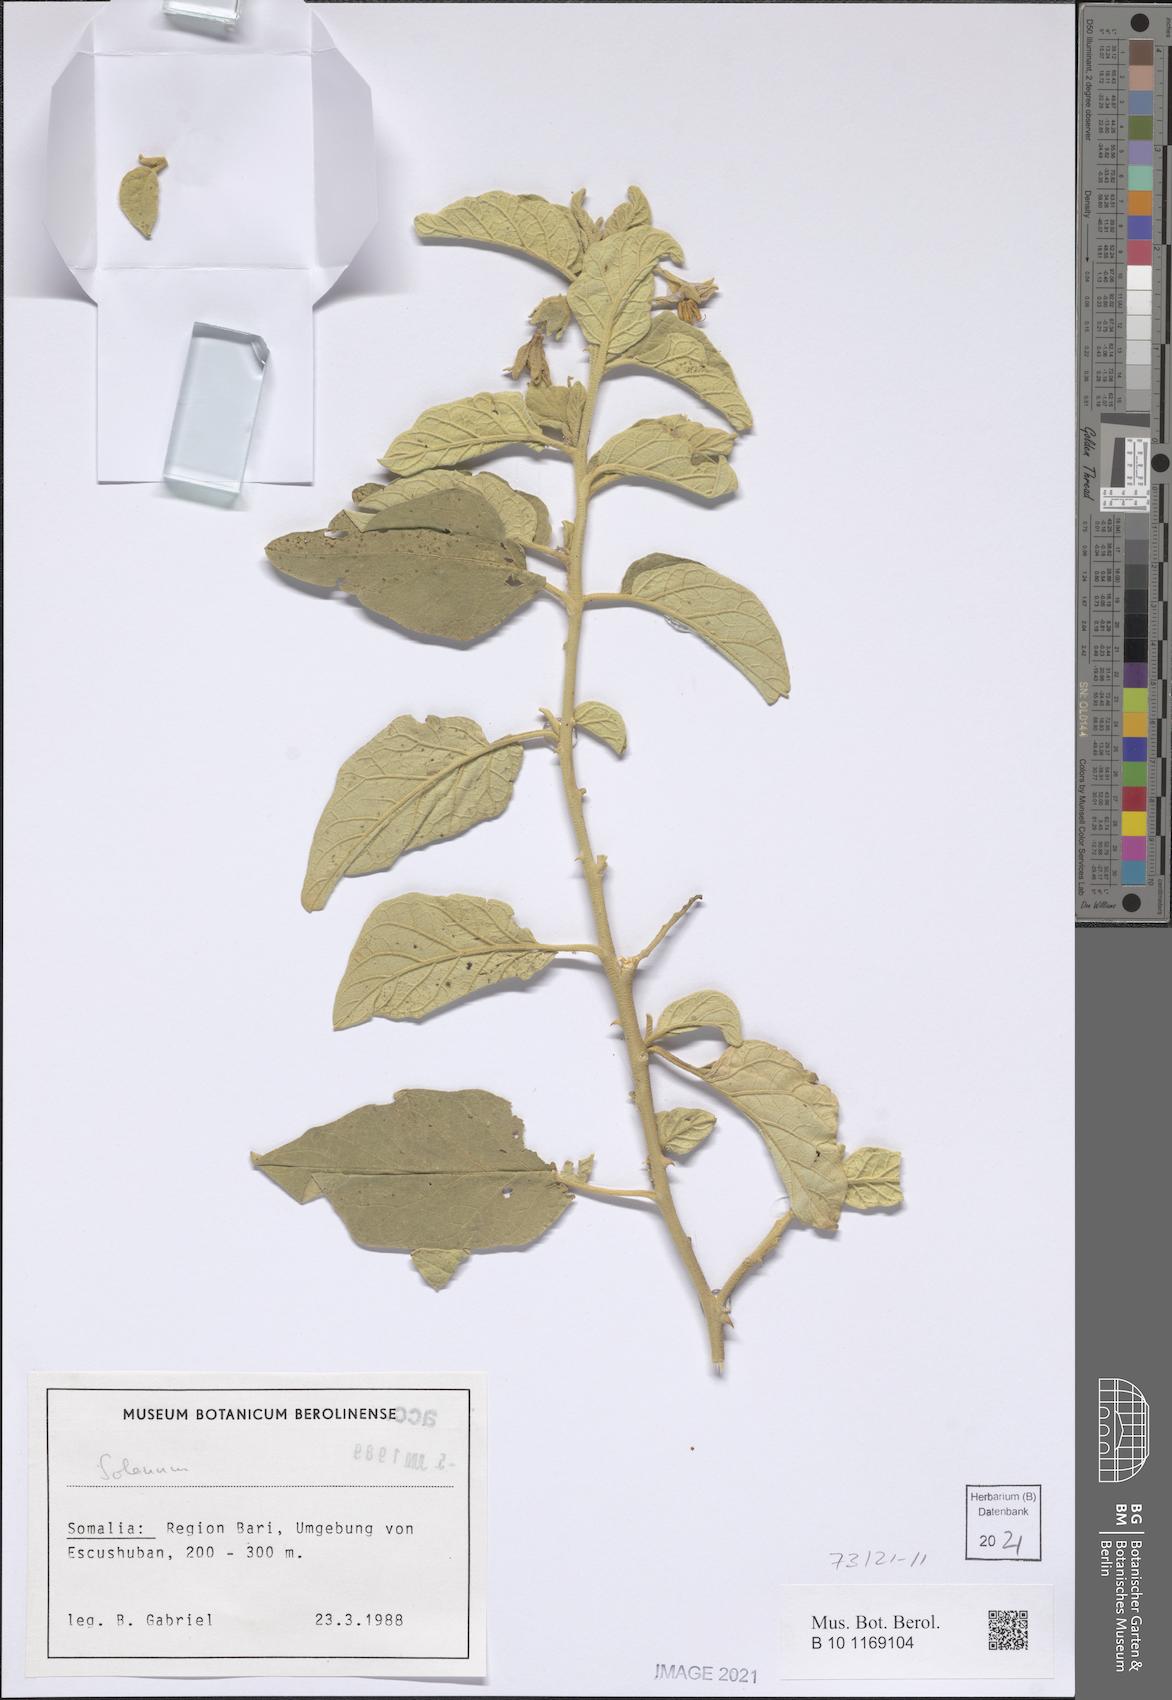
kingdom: Plantae
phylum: Tracheophyta
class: Magnoliopsida
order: Solanales
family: Solanaceae
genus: Solanum
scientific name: Solanum
